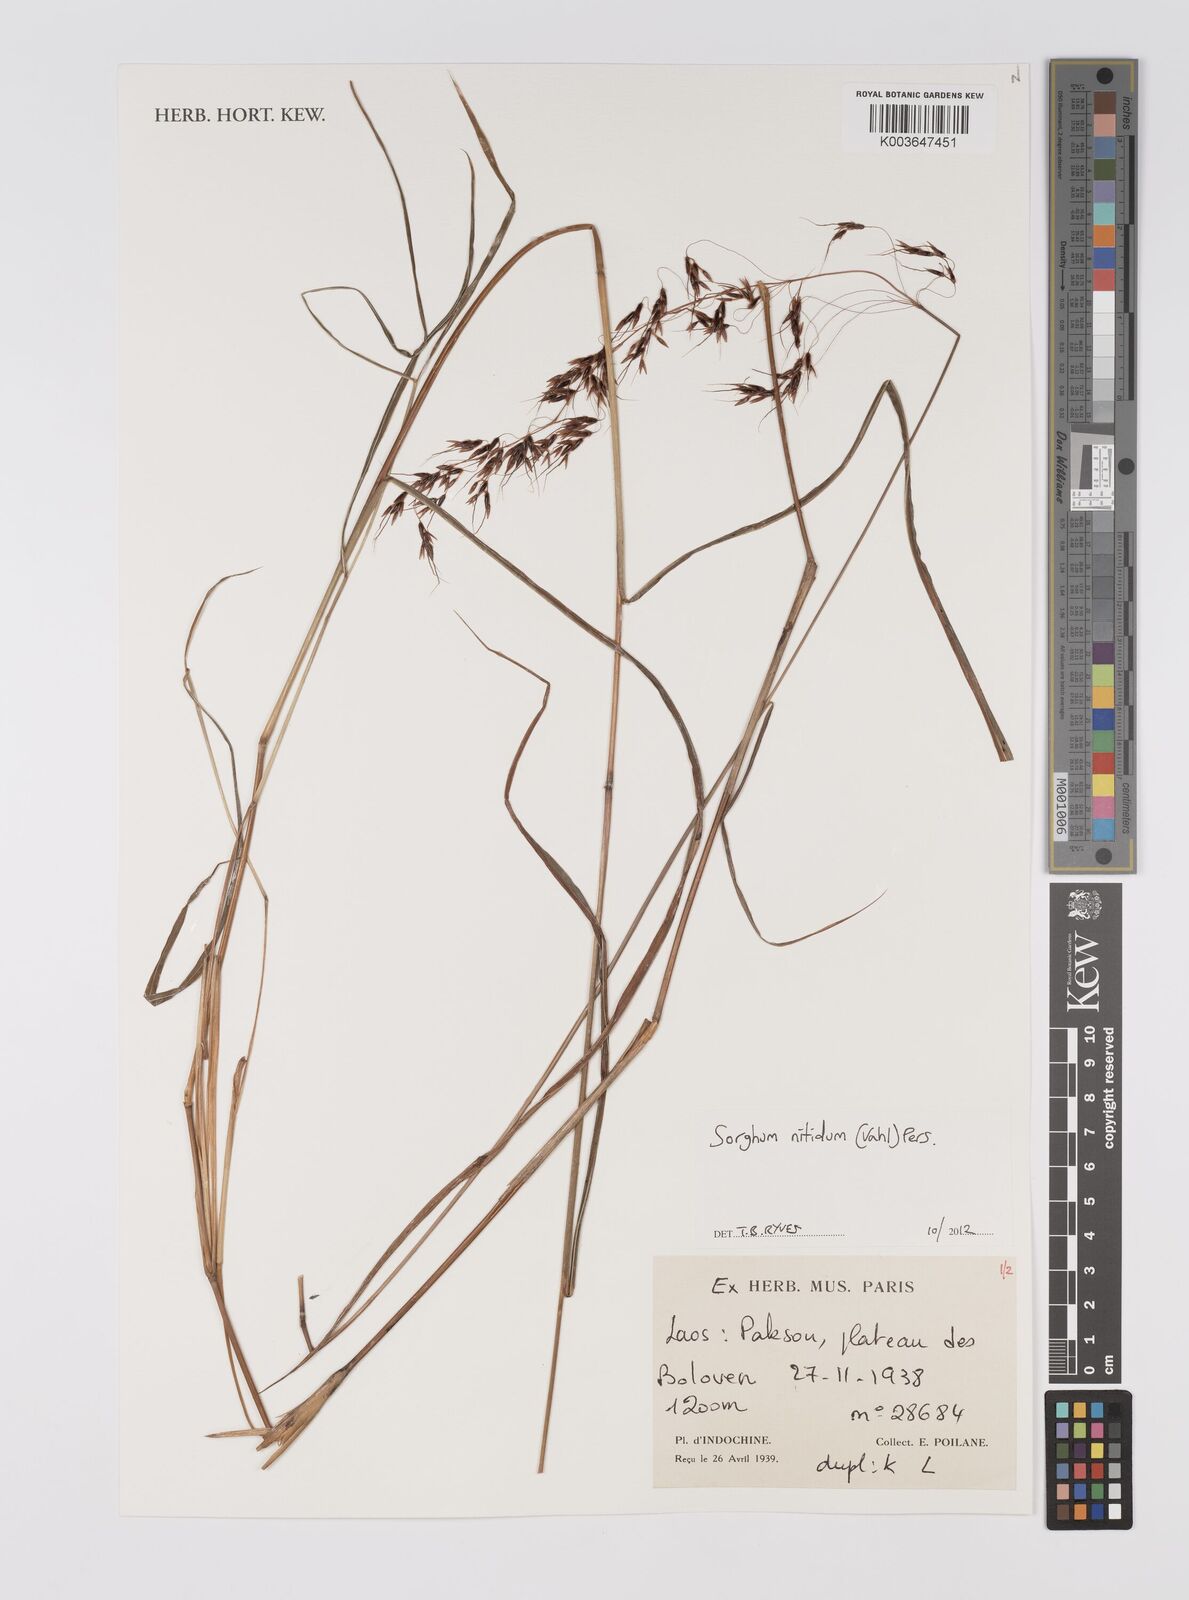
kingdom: Plantae
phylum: Tracheophyta
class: Liliopsida
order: Poales
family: Poaceae
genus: Sorghum
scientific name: Sorghum nitidum
